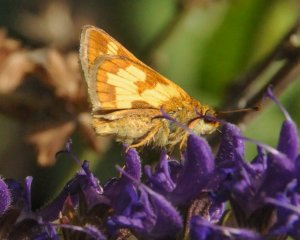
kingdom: Animalia
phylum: Arthropoda
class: Insecta
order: Lepidoptera
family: Hesperiidae
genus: Polites
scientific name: Polites coras
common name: Peck's Skipper
